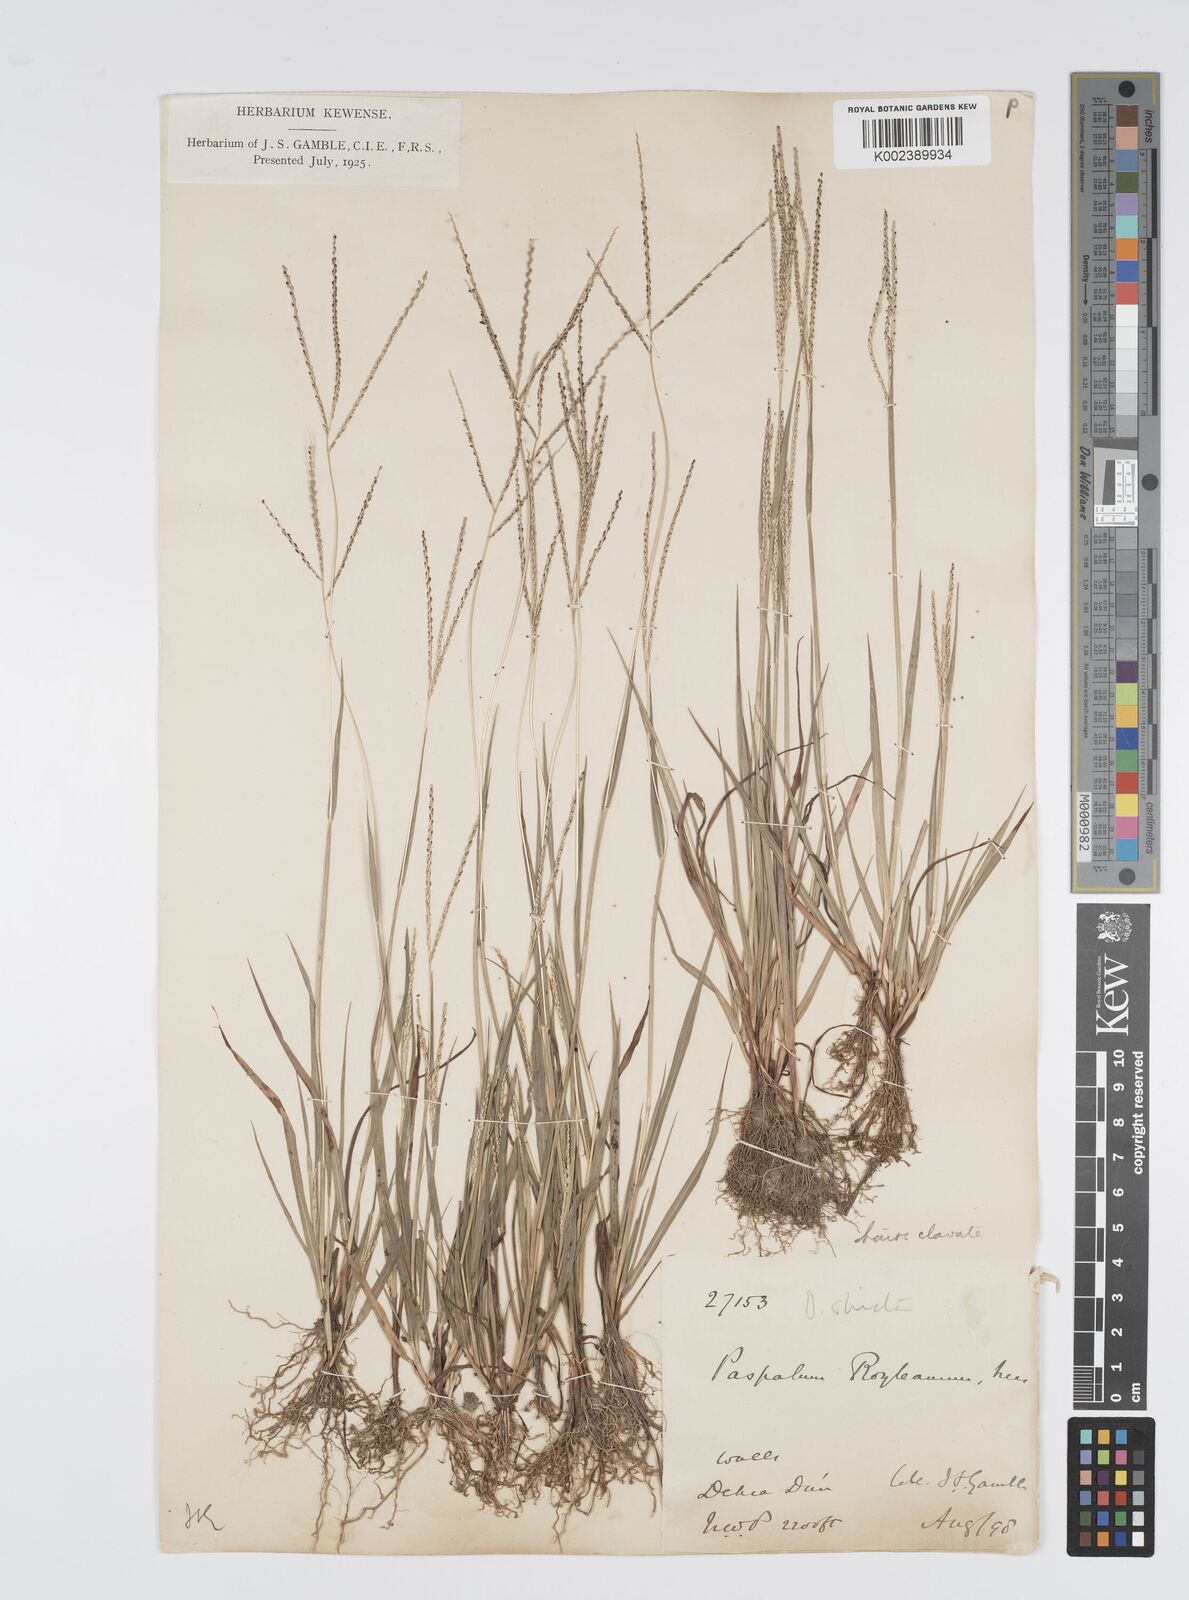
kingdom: Plantae
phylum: Tracheophyta
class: Liliopsida
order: Poales
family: Poaceae
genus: Digitaria
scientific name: Digitaria stricta
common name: Crabgrass
